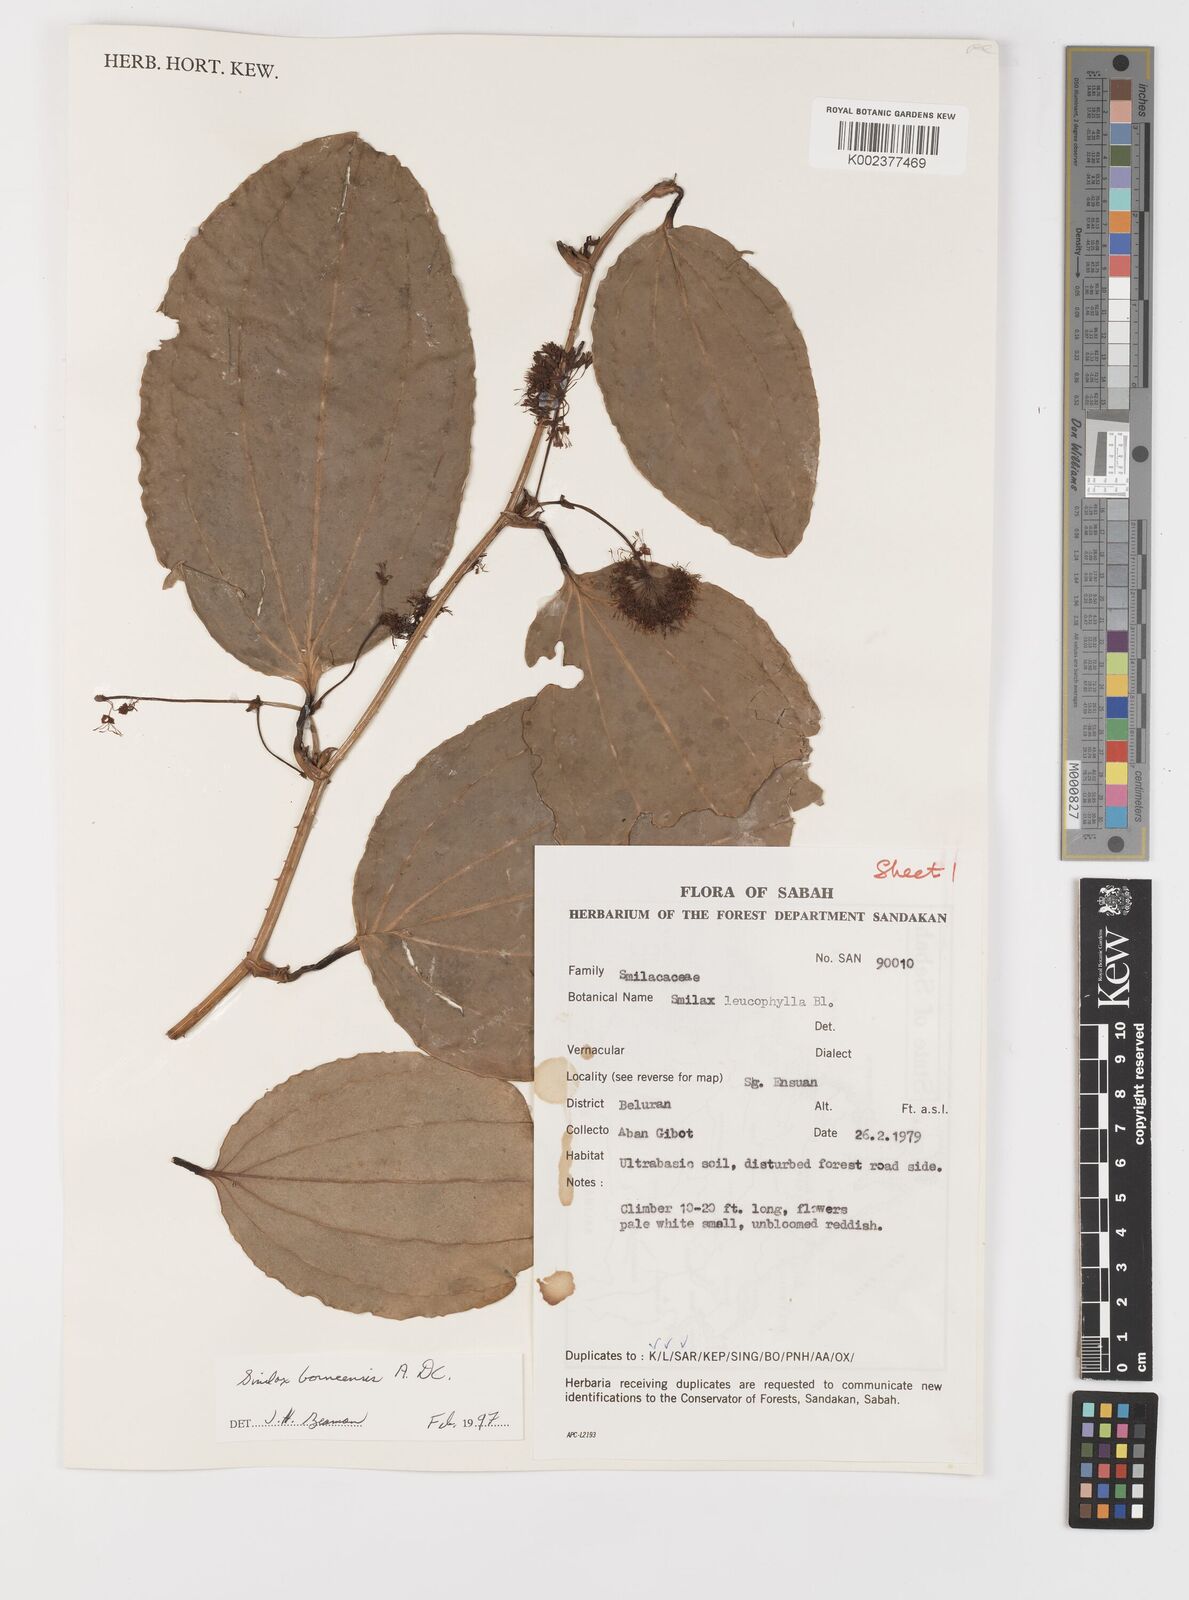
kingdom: Plantae
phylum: Tracheophyta
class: Liliopsida
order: Liliales
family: Smilacaceae
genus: Smilax
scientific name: Smilax borneensis
